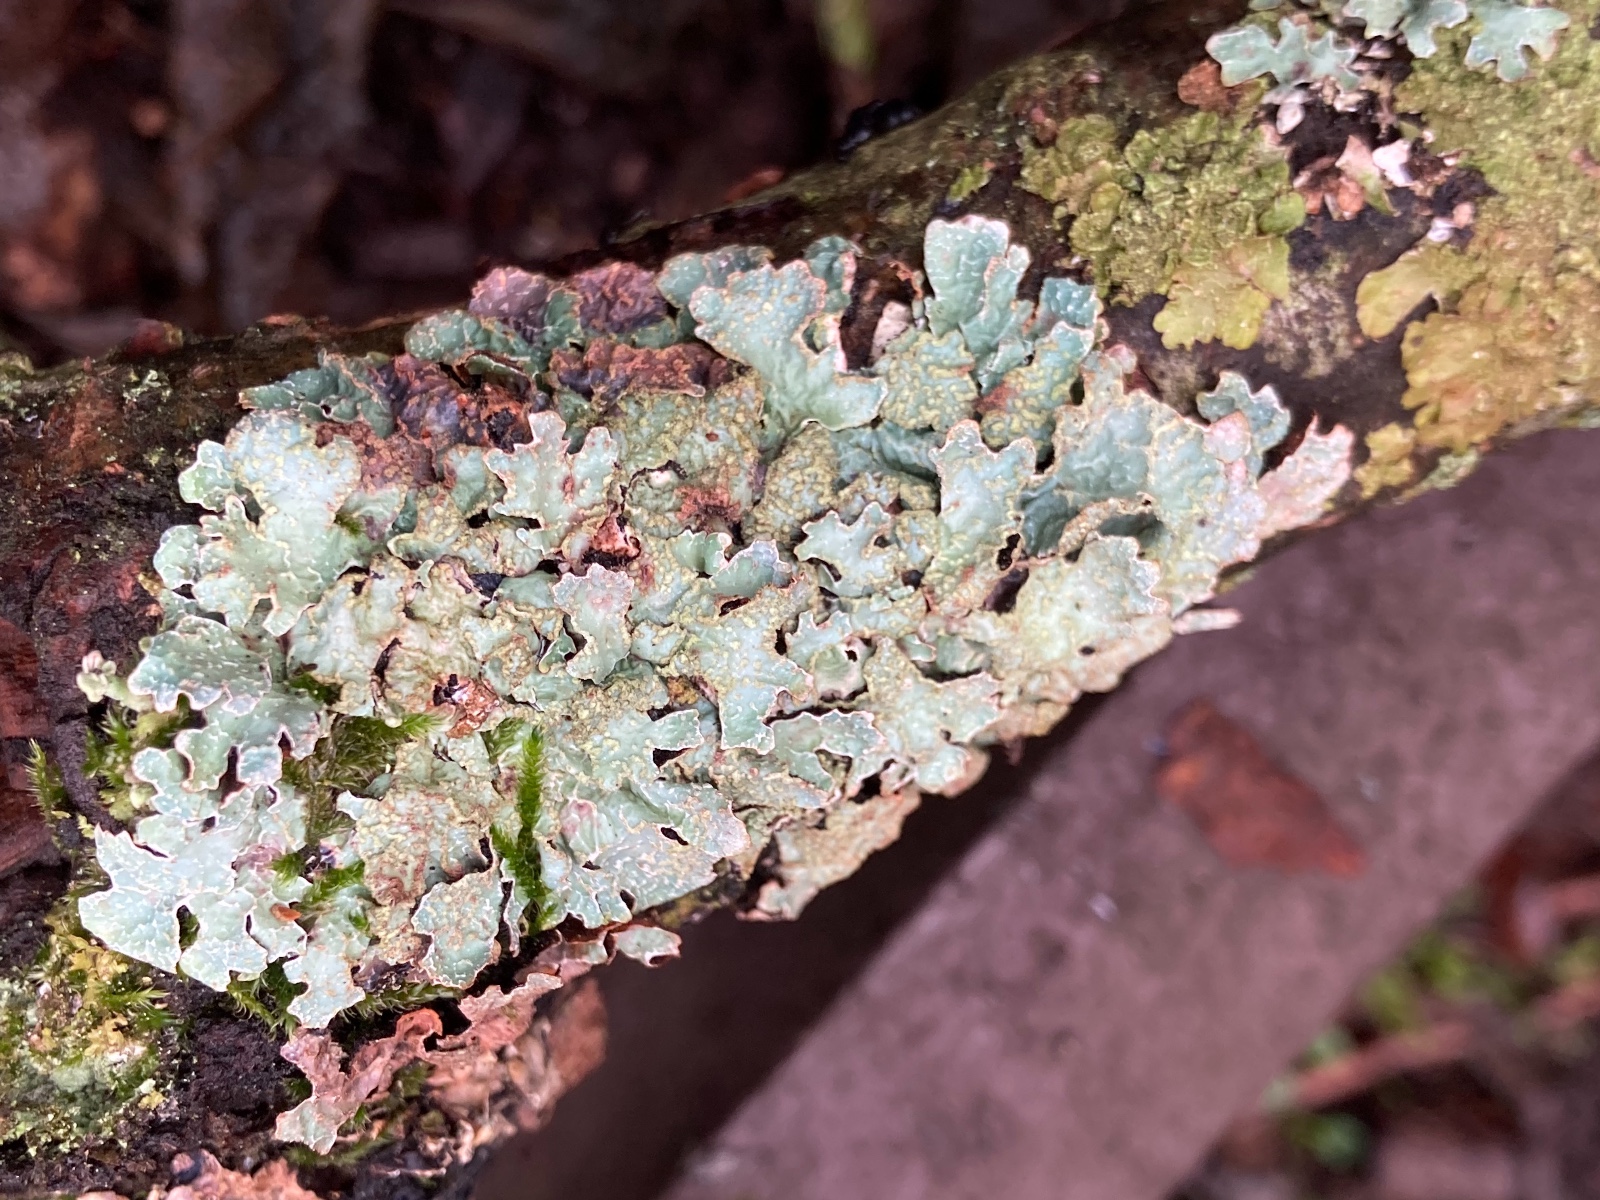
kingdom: Fungi
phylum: Ascomycota
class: Lecanoromycetes
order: Lecanorales
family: Parmeliaceae
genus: Parmelia
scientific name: Parmelia sulcata
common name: rynket skållav
